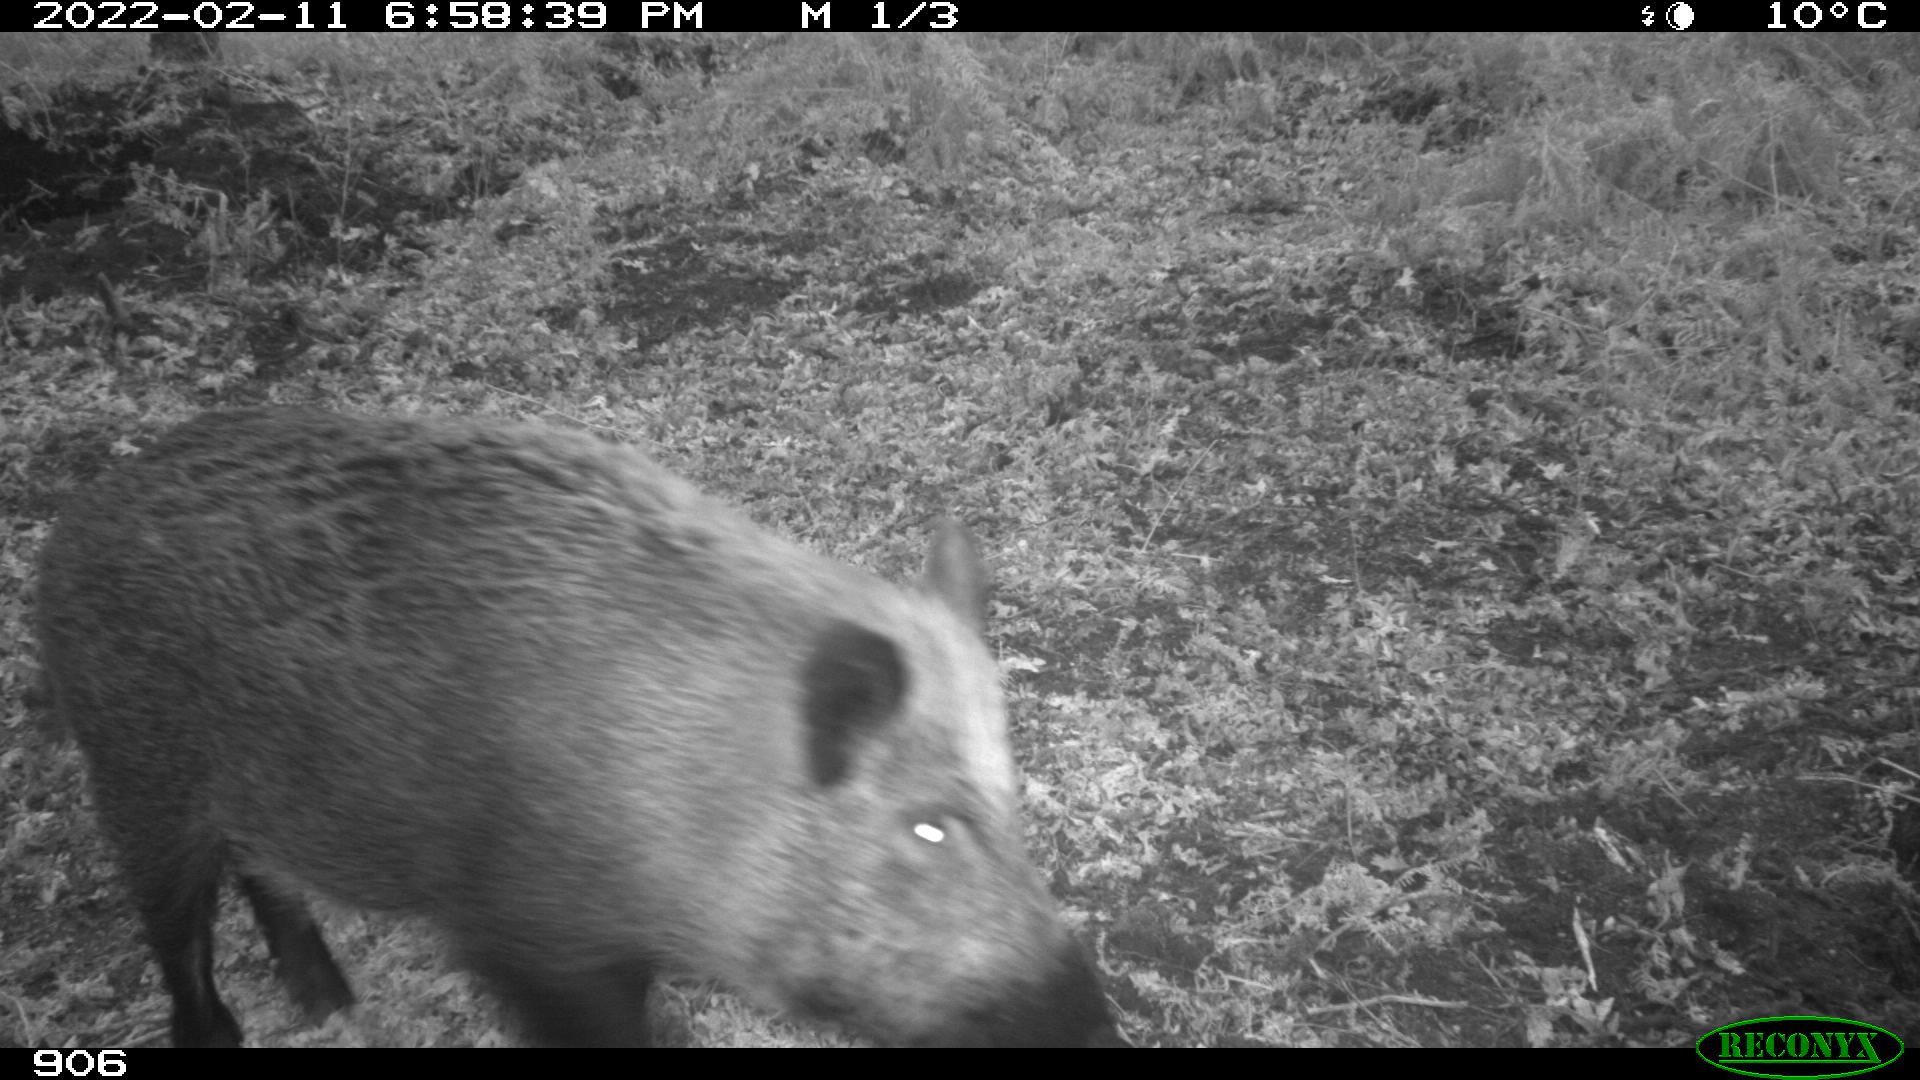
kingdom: Animalia
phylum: Chordata
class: Mammalia
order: Artiodactyla
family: Suidae
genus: Sus
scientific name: Sus scrofa
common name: Wild boar
